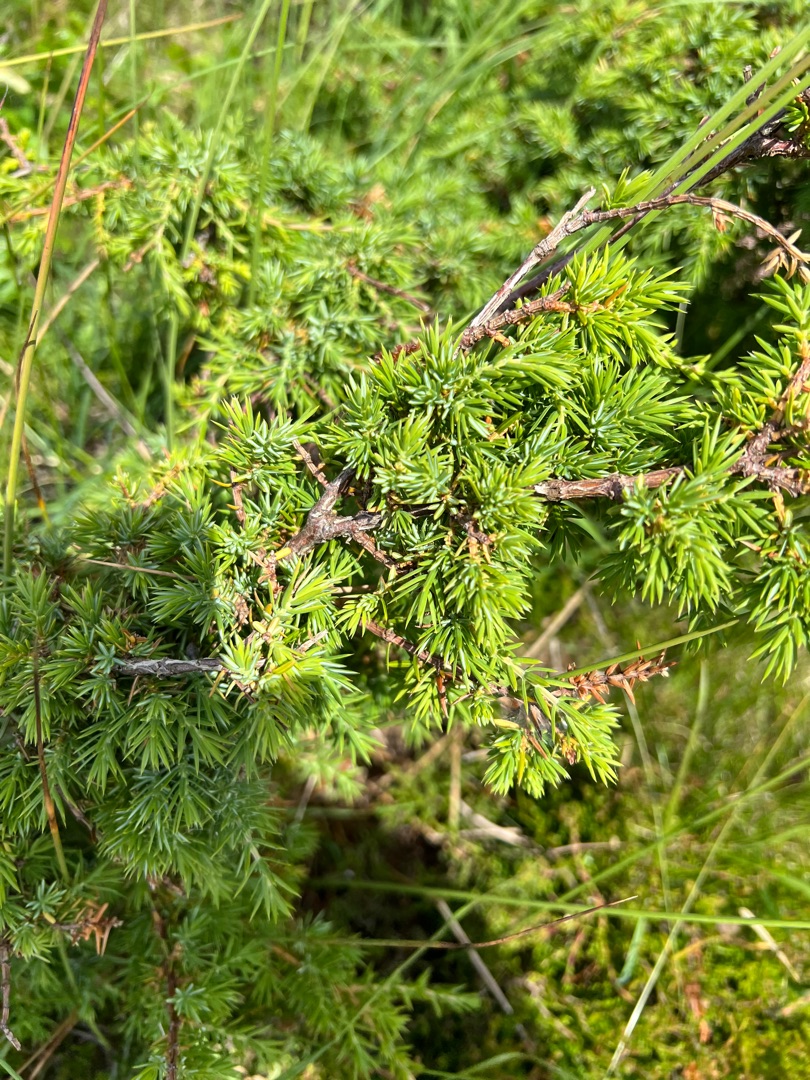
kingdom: Plantae
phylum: Tracheophyta
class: Pinopsida
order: Pinales
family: Cupressaceae
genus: Juniperus
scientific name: Juniperus communis
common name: Almindelig ene
